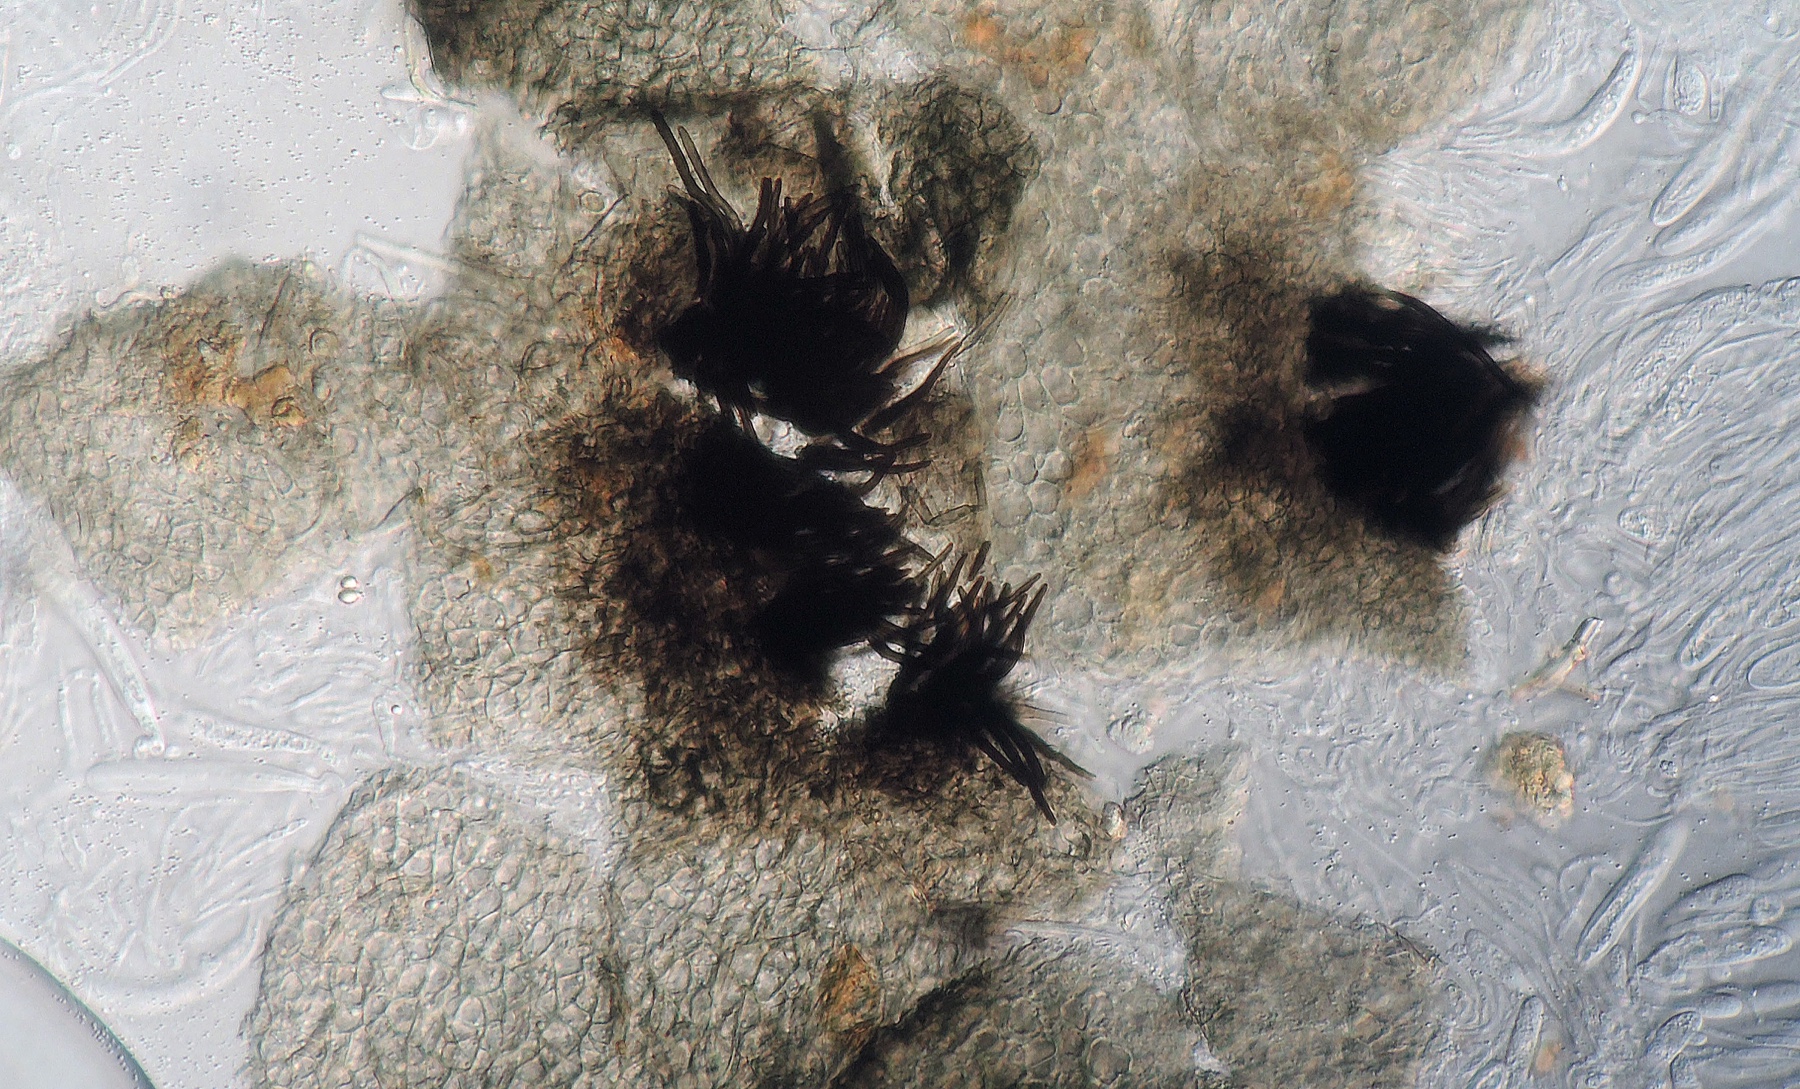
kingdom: Fungi
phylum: Ascomycota
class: Dothideomycetes
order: Pleosporales
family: Lentitheciaceae
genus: Keissleriella
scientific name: Keissleriella culmifida
